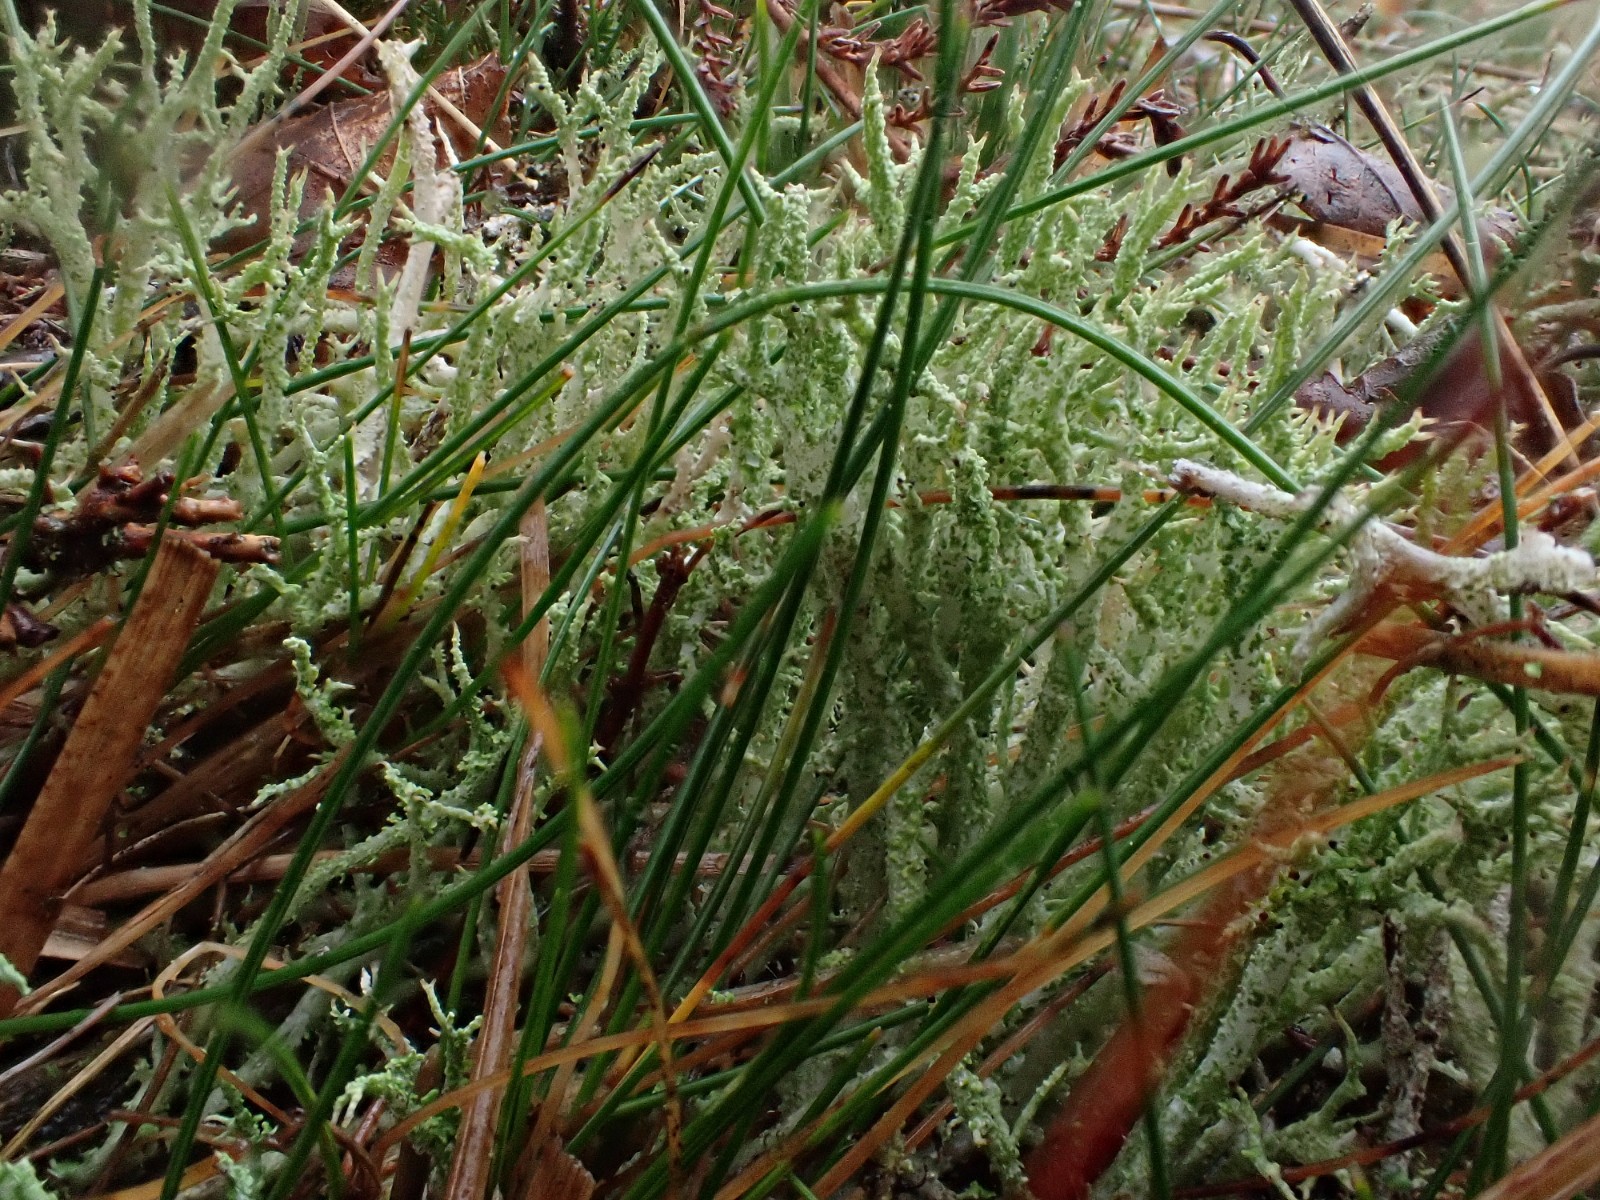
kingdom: Fungi
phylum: Ascomycota
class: Lecanoromycetes
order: Lecanorales
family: Cladoniaceae
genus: Cladonia
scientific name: Cladonia scabriuscula
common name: ru bægerlav
